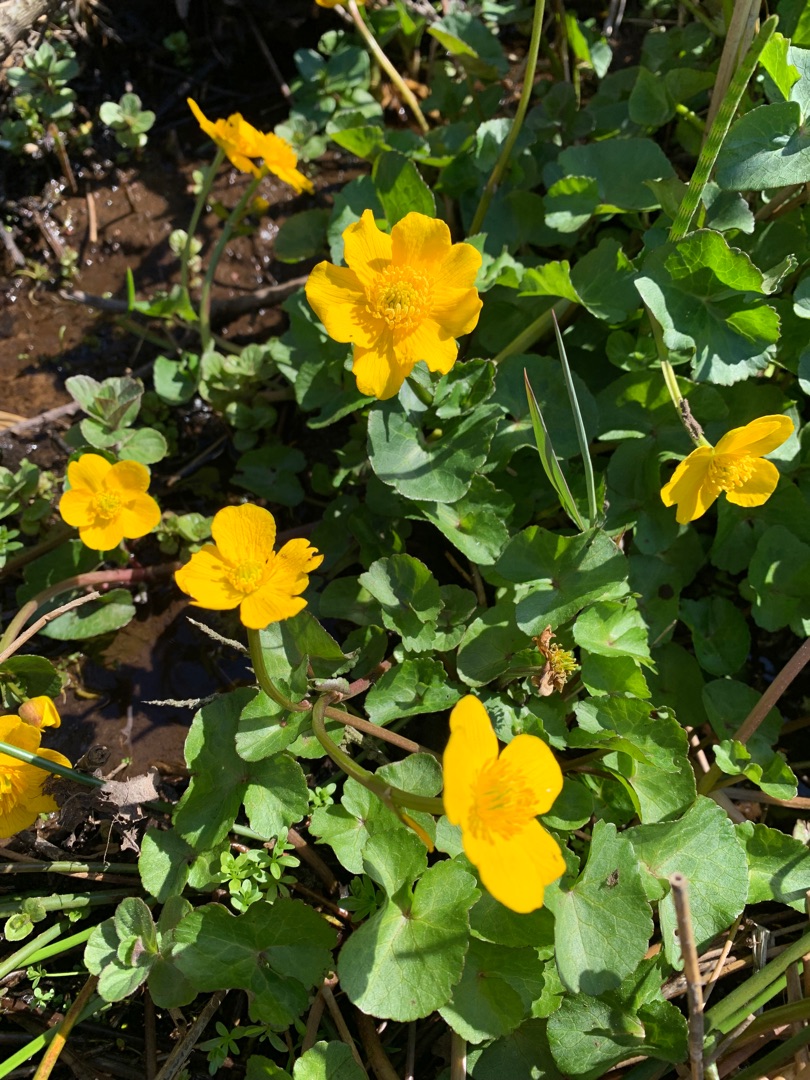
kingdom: Plantae
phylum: Tracheophyta
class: Magnoliopsida
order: Ranunculales
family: Ranunculaceae
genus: Caltha
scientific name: Caltha palustris
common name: Eng-kabbeleje
